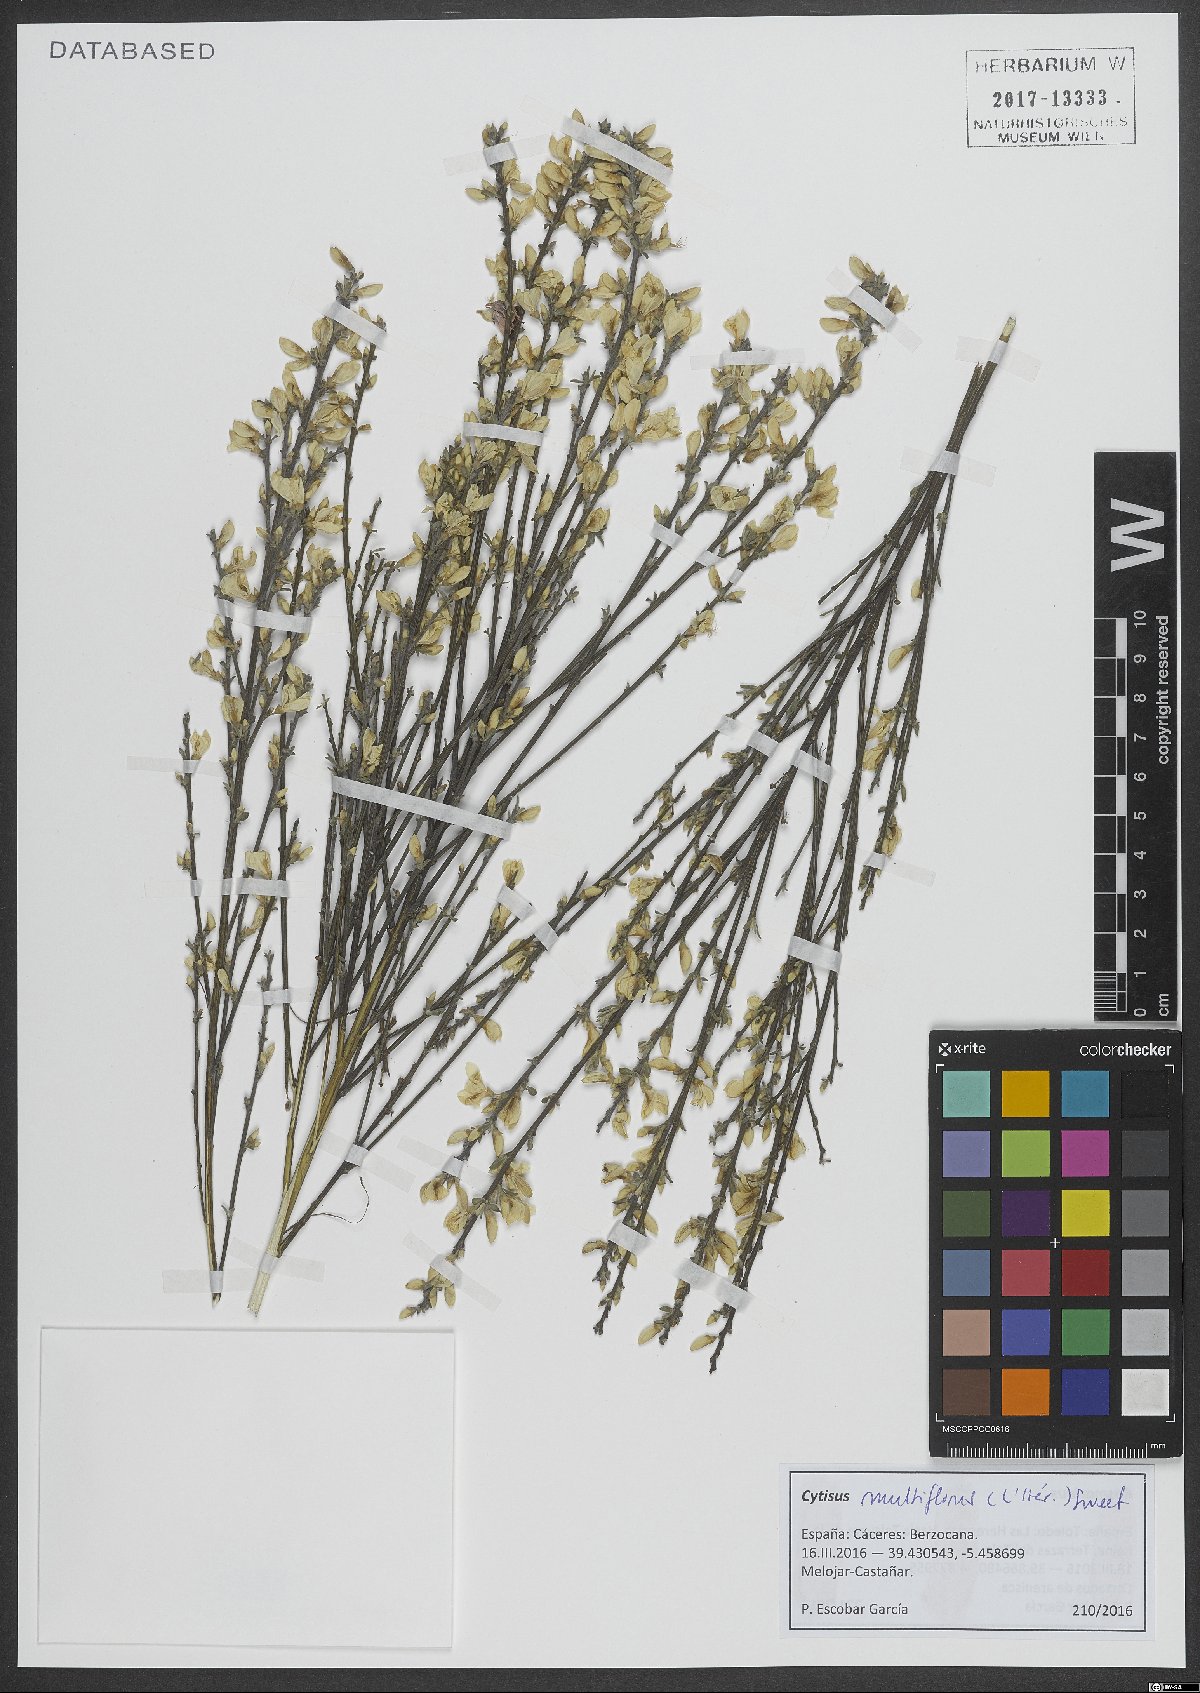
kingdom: Plantae
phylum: Tracheophyta
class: Magnoliopsida
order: Fabales
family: Fabaceae
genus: Cytisus
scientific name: Cytisus multiflorus
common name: White broom
